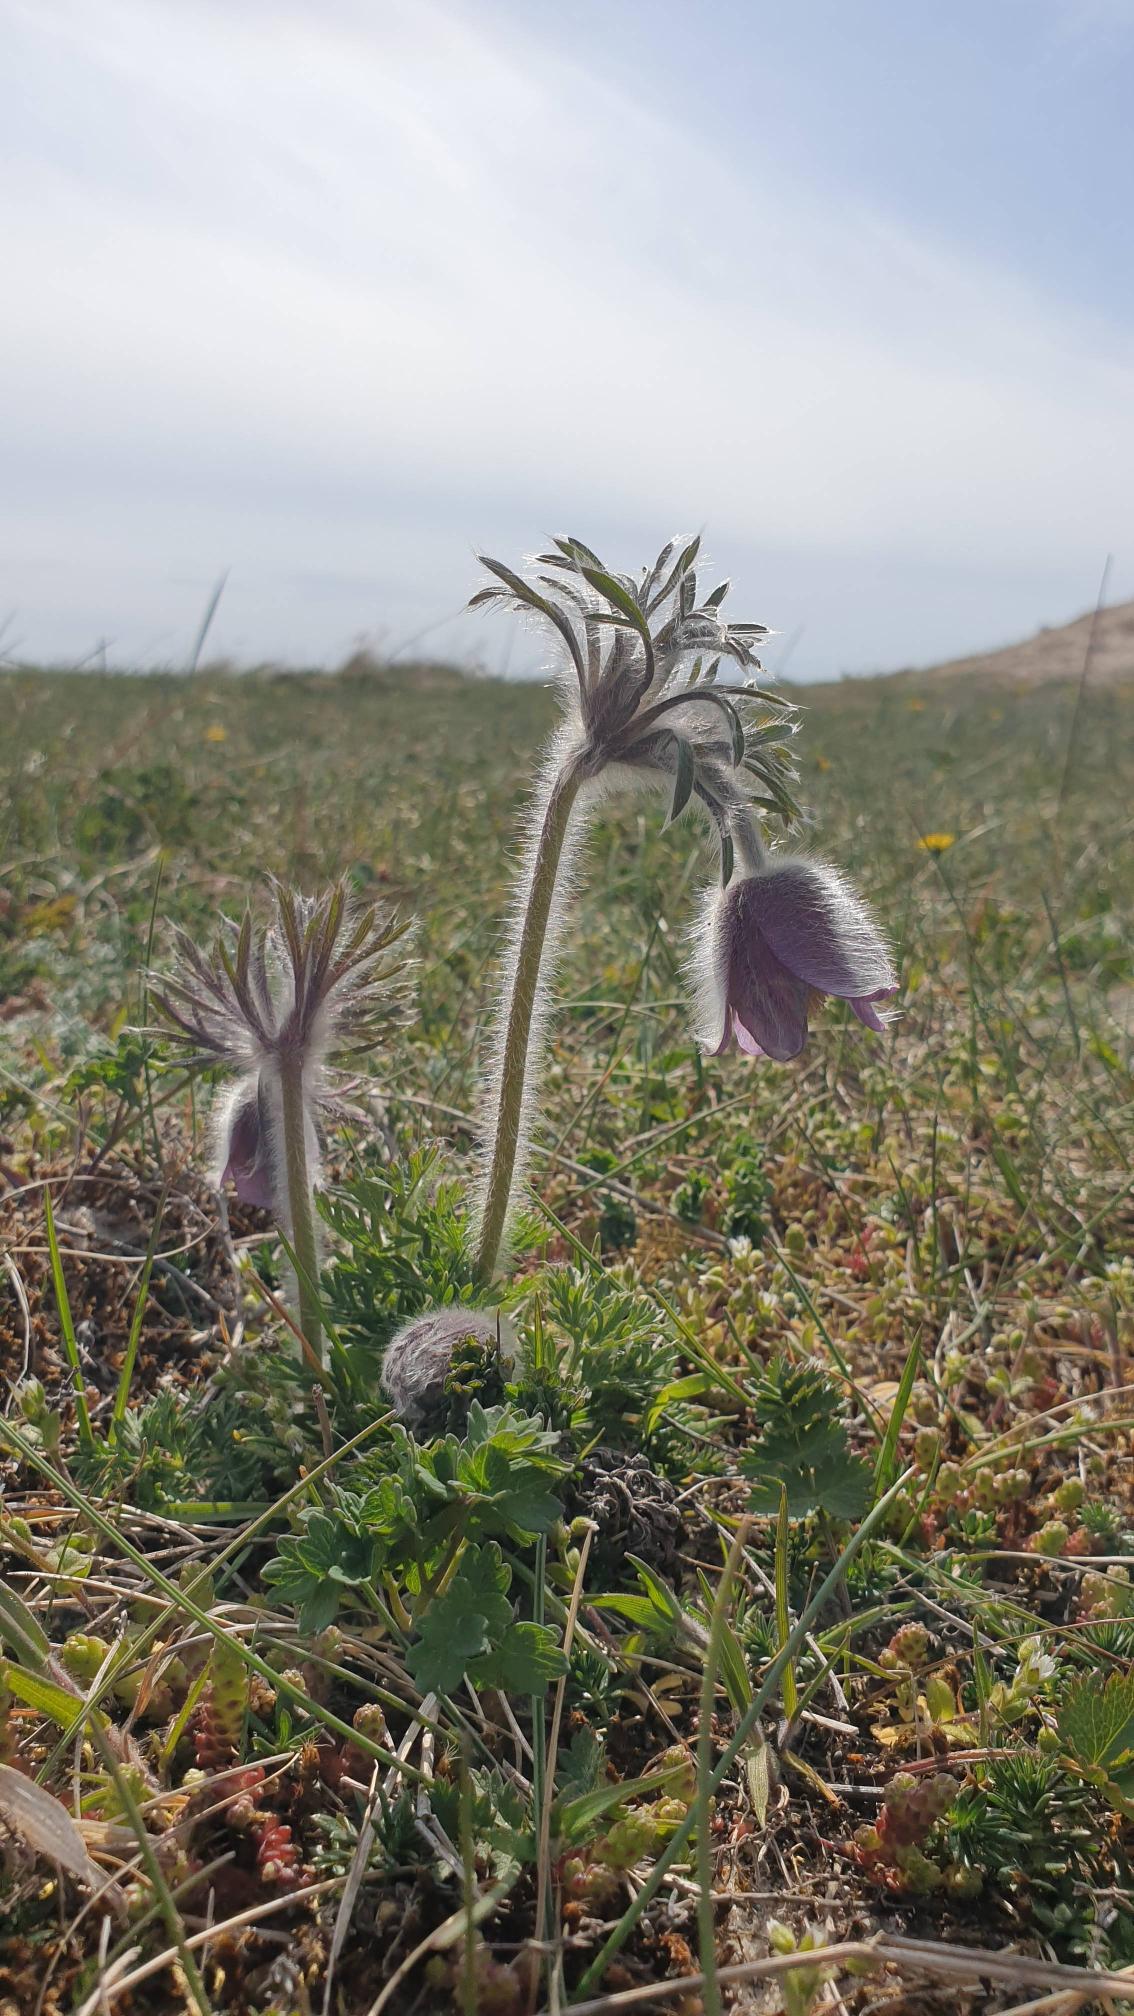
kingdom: Plantae
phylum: Tracheophyta
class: Magnoliopsida
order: Ranunculales
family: Ranunculaceae
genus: Pulsatilla
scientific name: Pulsatilla pratensis
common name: Nikkende kobjælde
